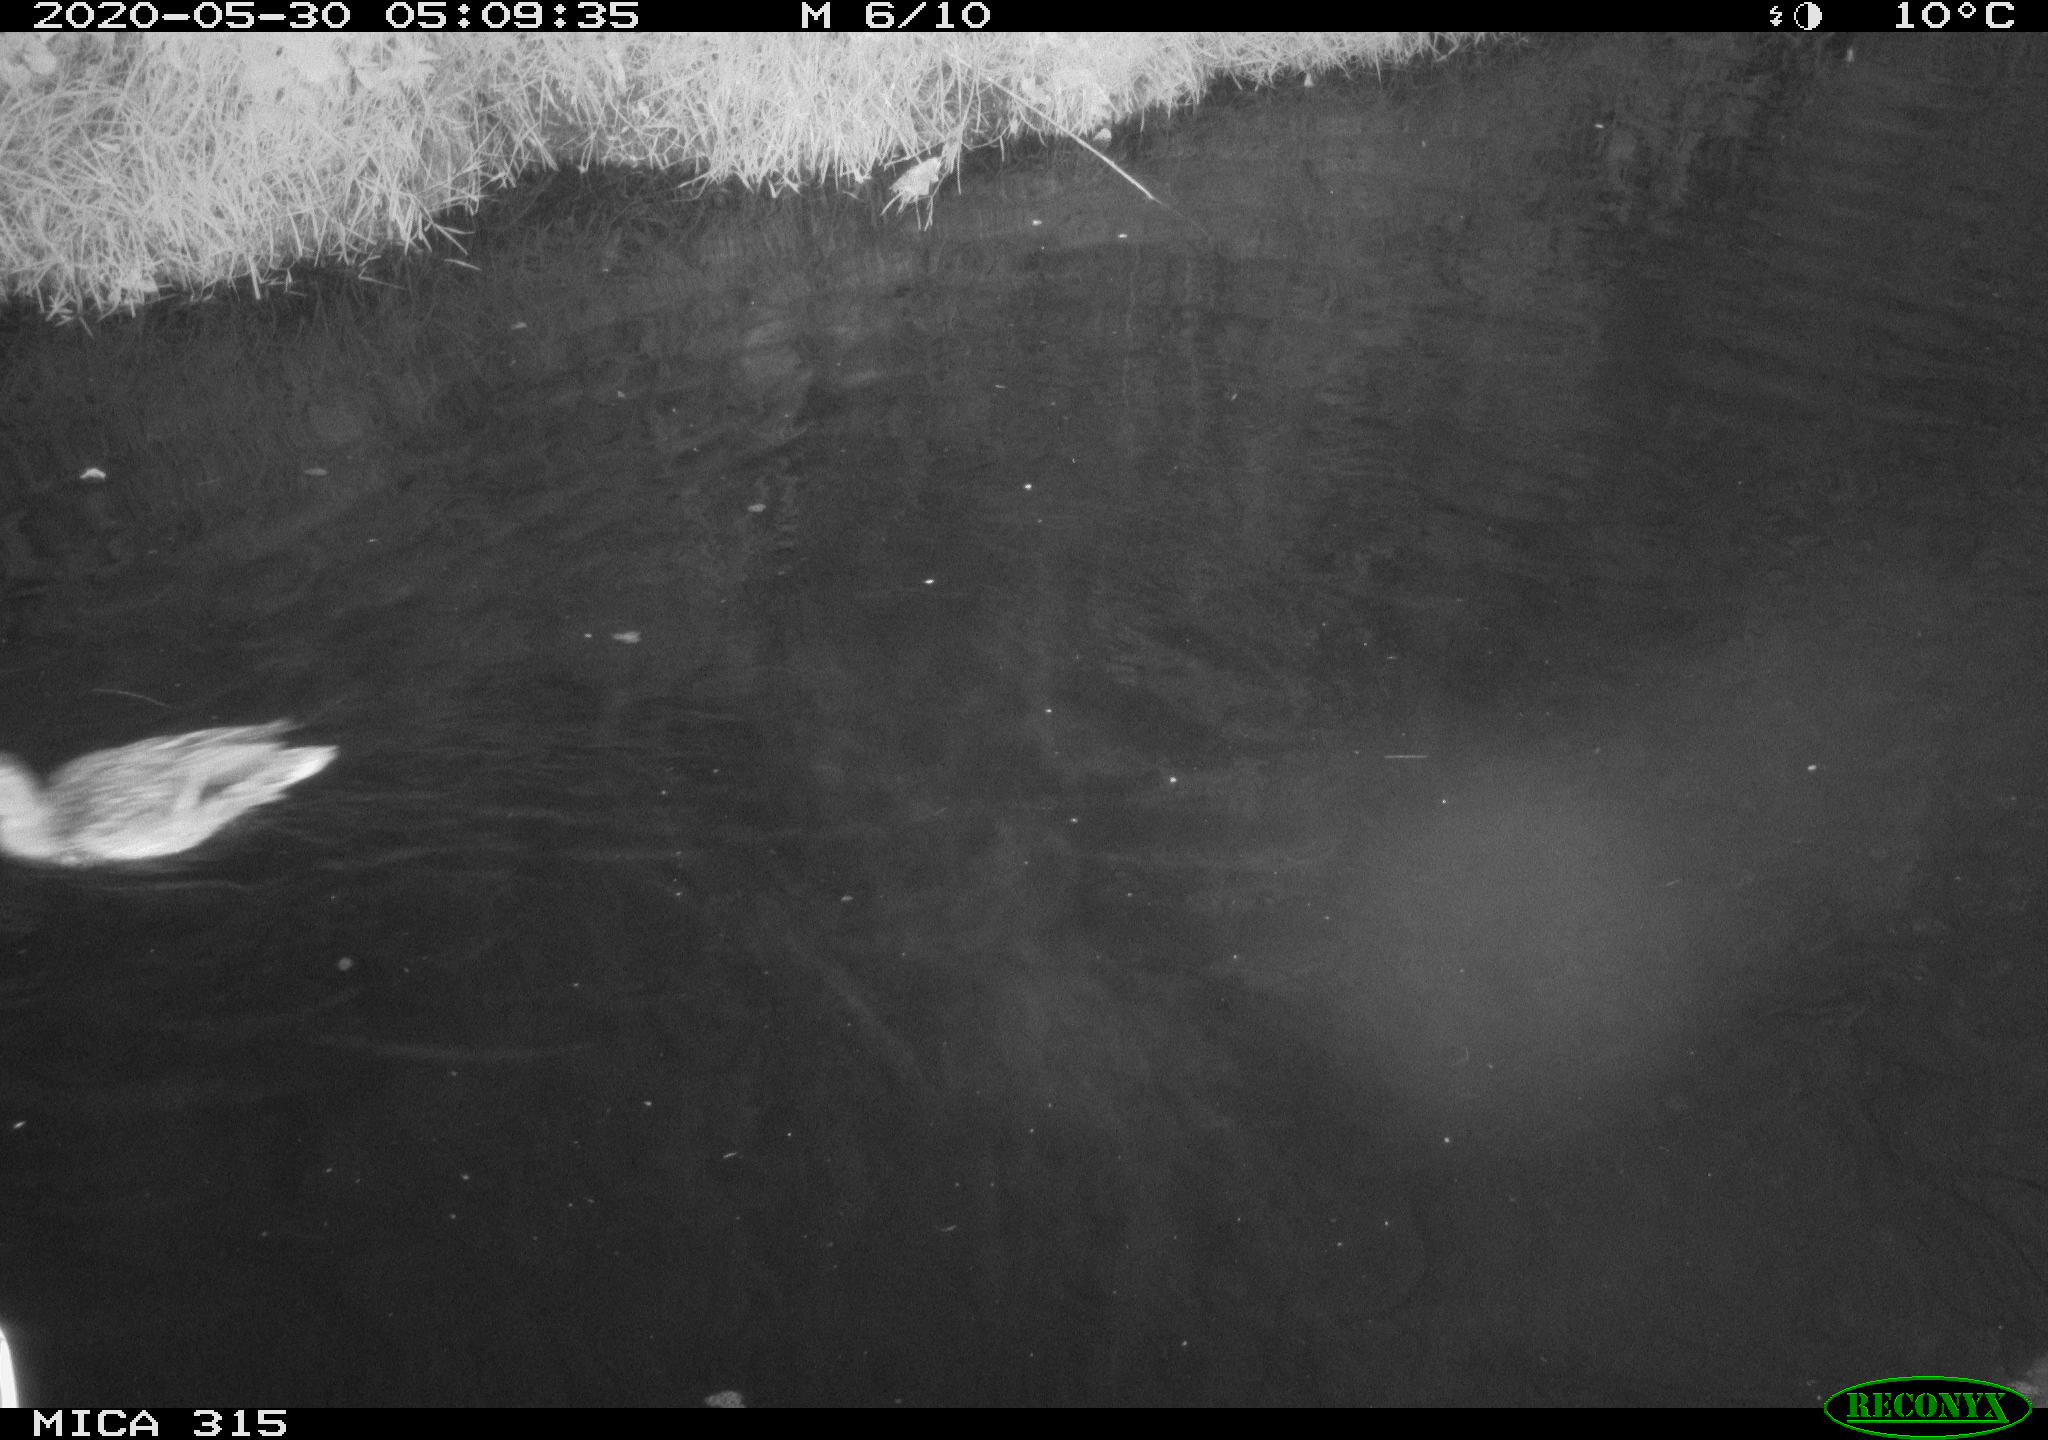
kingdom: Animalia
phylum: Chordata
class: Aves
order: Anseriformes
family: Anatidae
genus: Anas
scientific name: Anas platyrhynchos
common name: Mallard
